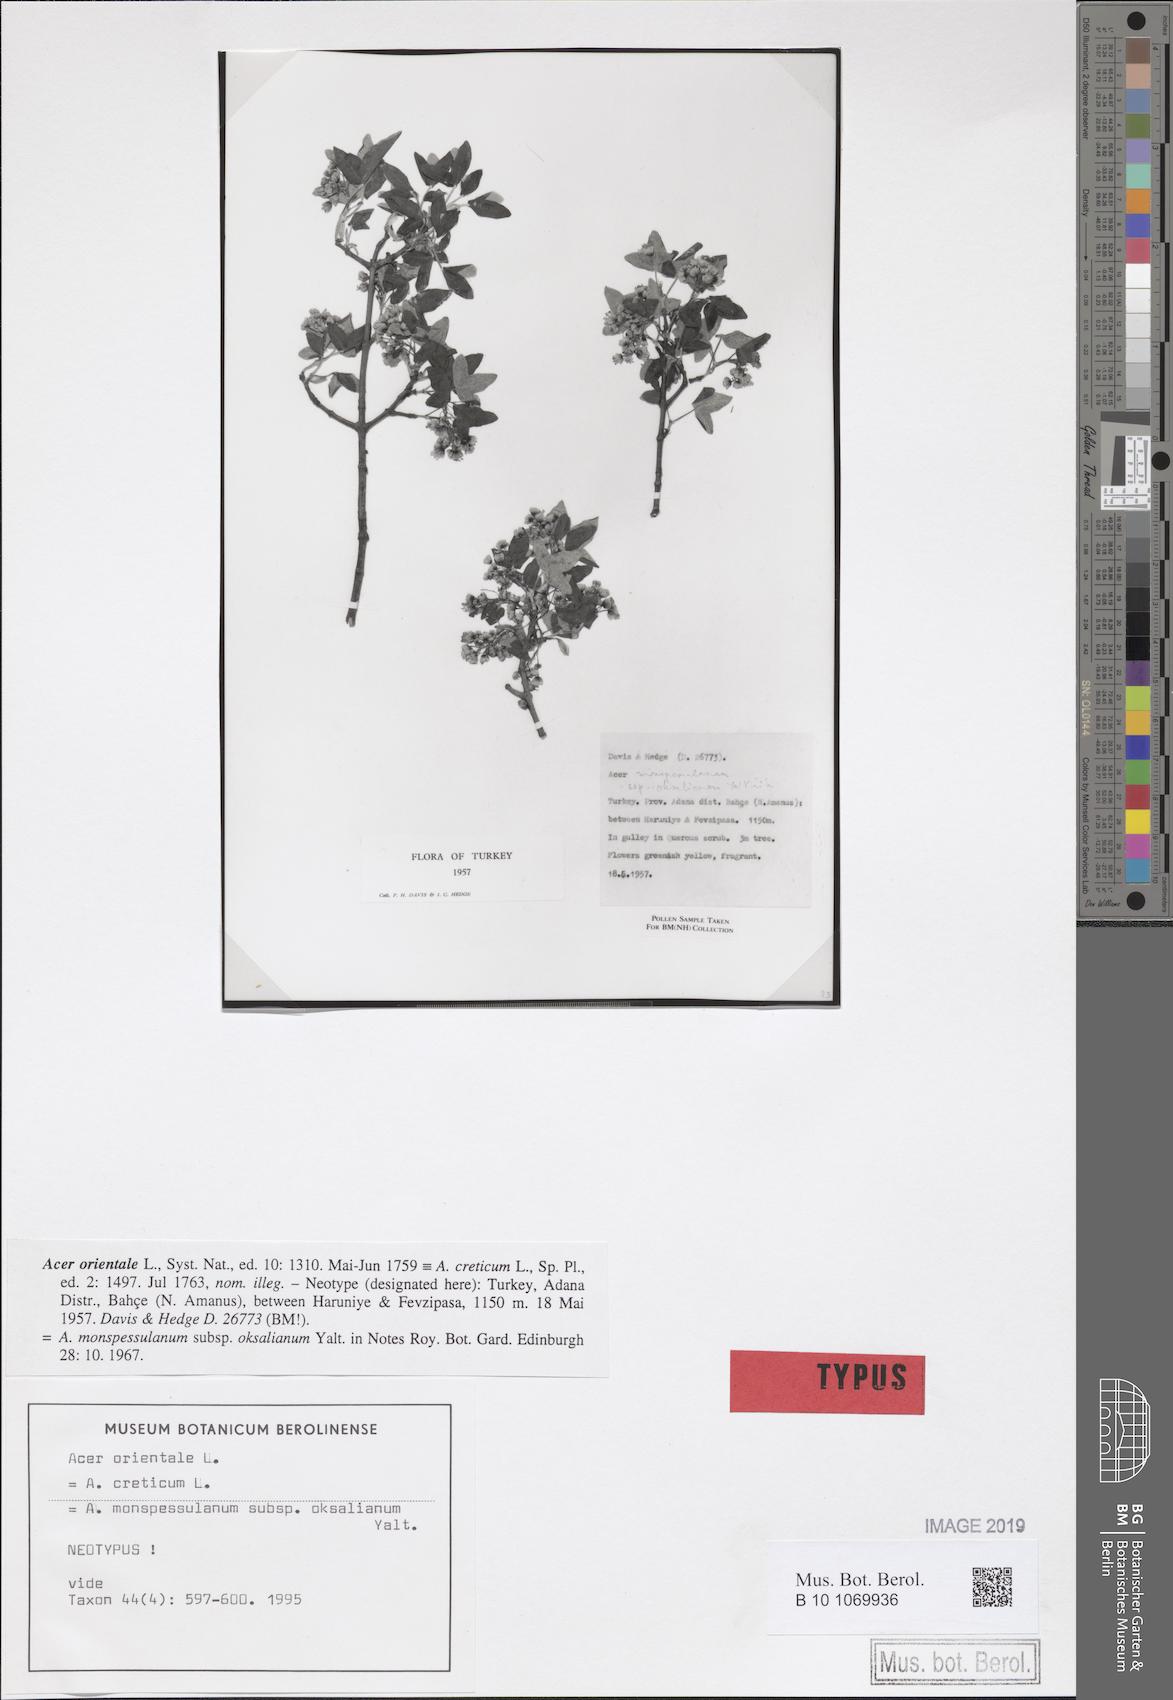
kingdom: Plantae
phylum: Tracheophyta
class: Magnoliopsida
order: Sapindales
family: Sapindaceae
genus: Acer
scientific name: Acer sempervirens
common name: Cretan maple
